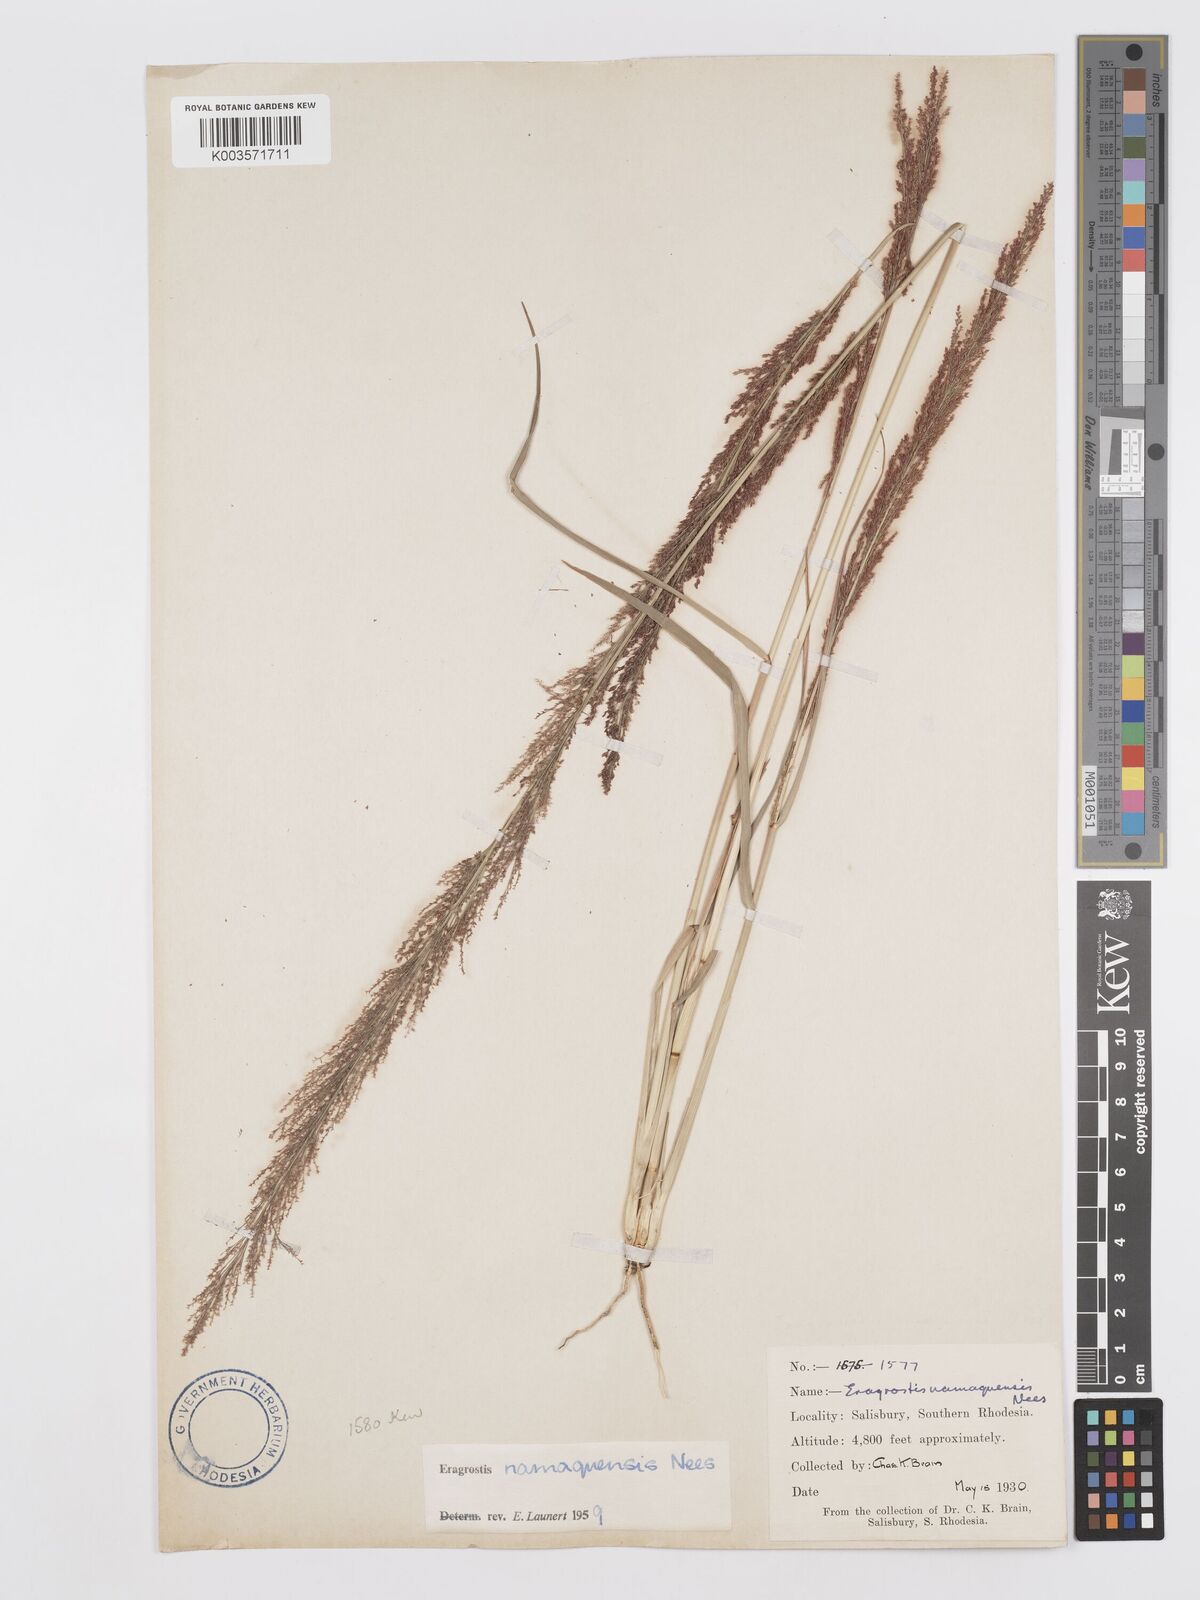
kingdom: Plantae
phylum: Tracheophyta
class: Liliopsida
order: Poales
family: Poaceae
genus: Eragrostis
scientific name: Eragrostis japonica
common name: Pond lovegrass
